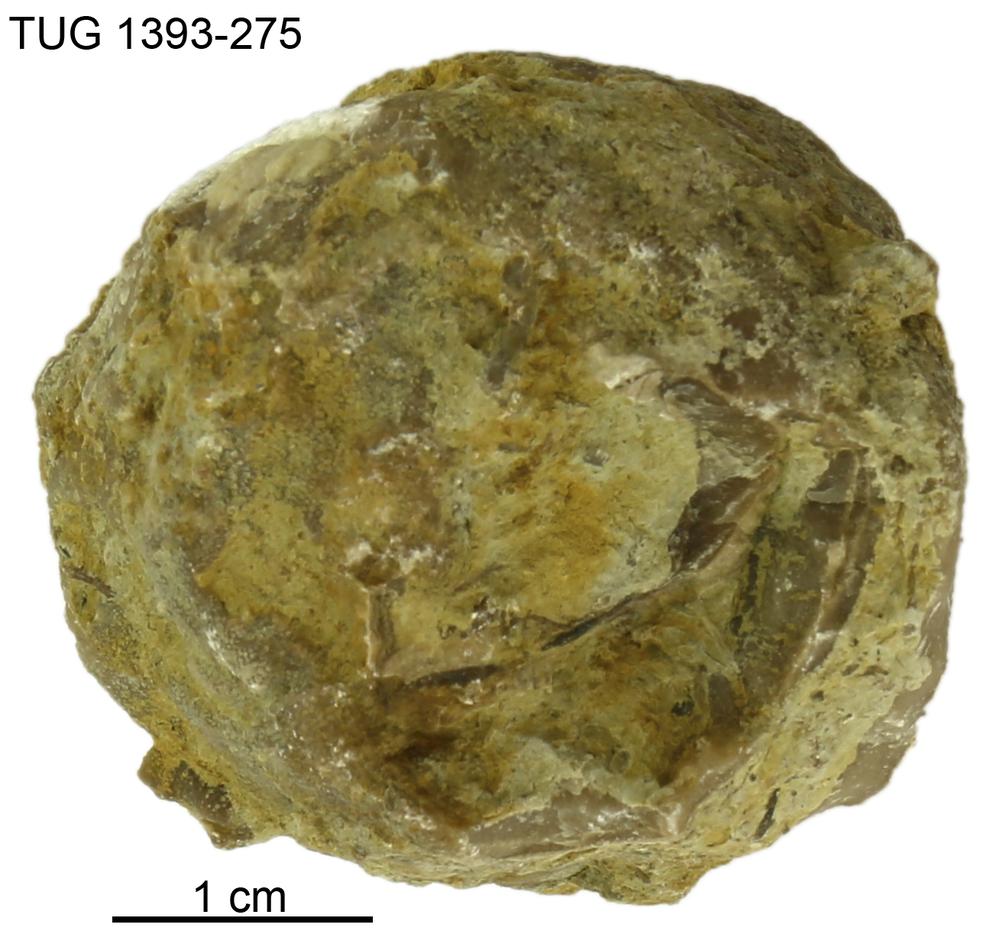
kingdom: Animalia
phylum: Bryozoa
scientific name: Bryozoa
